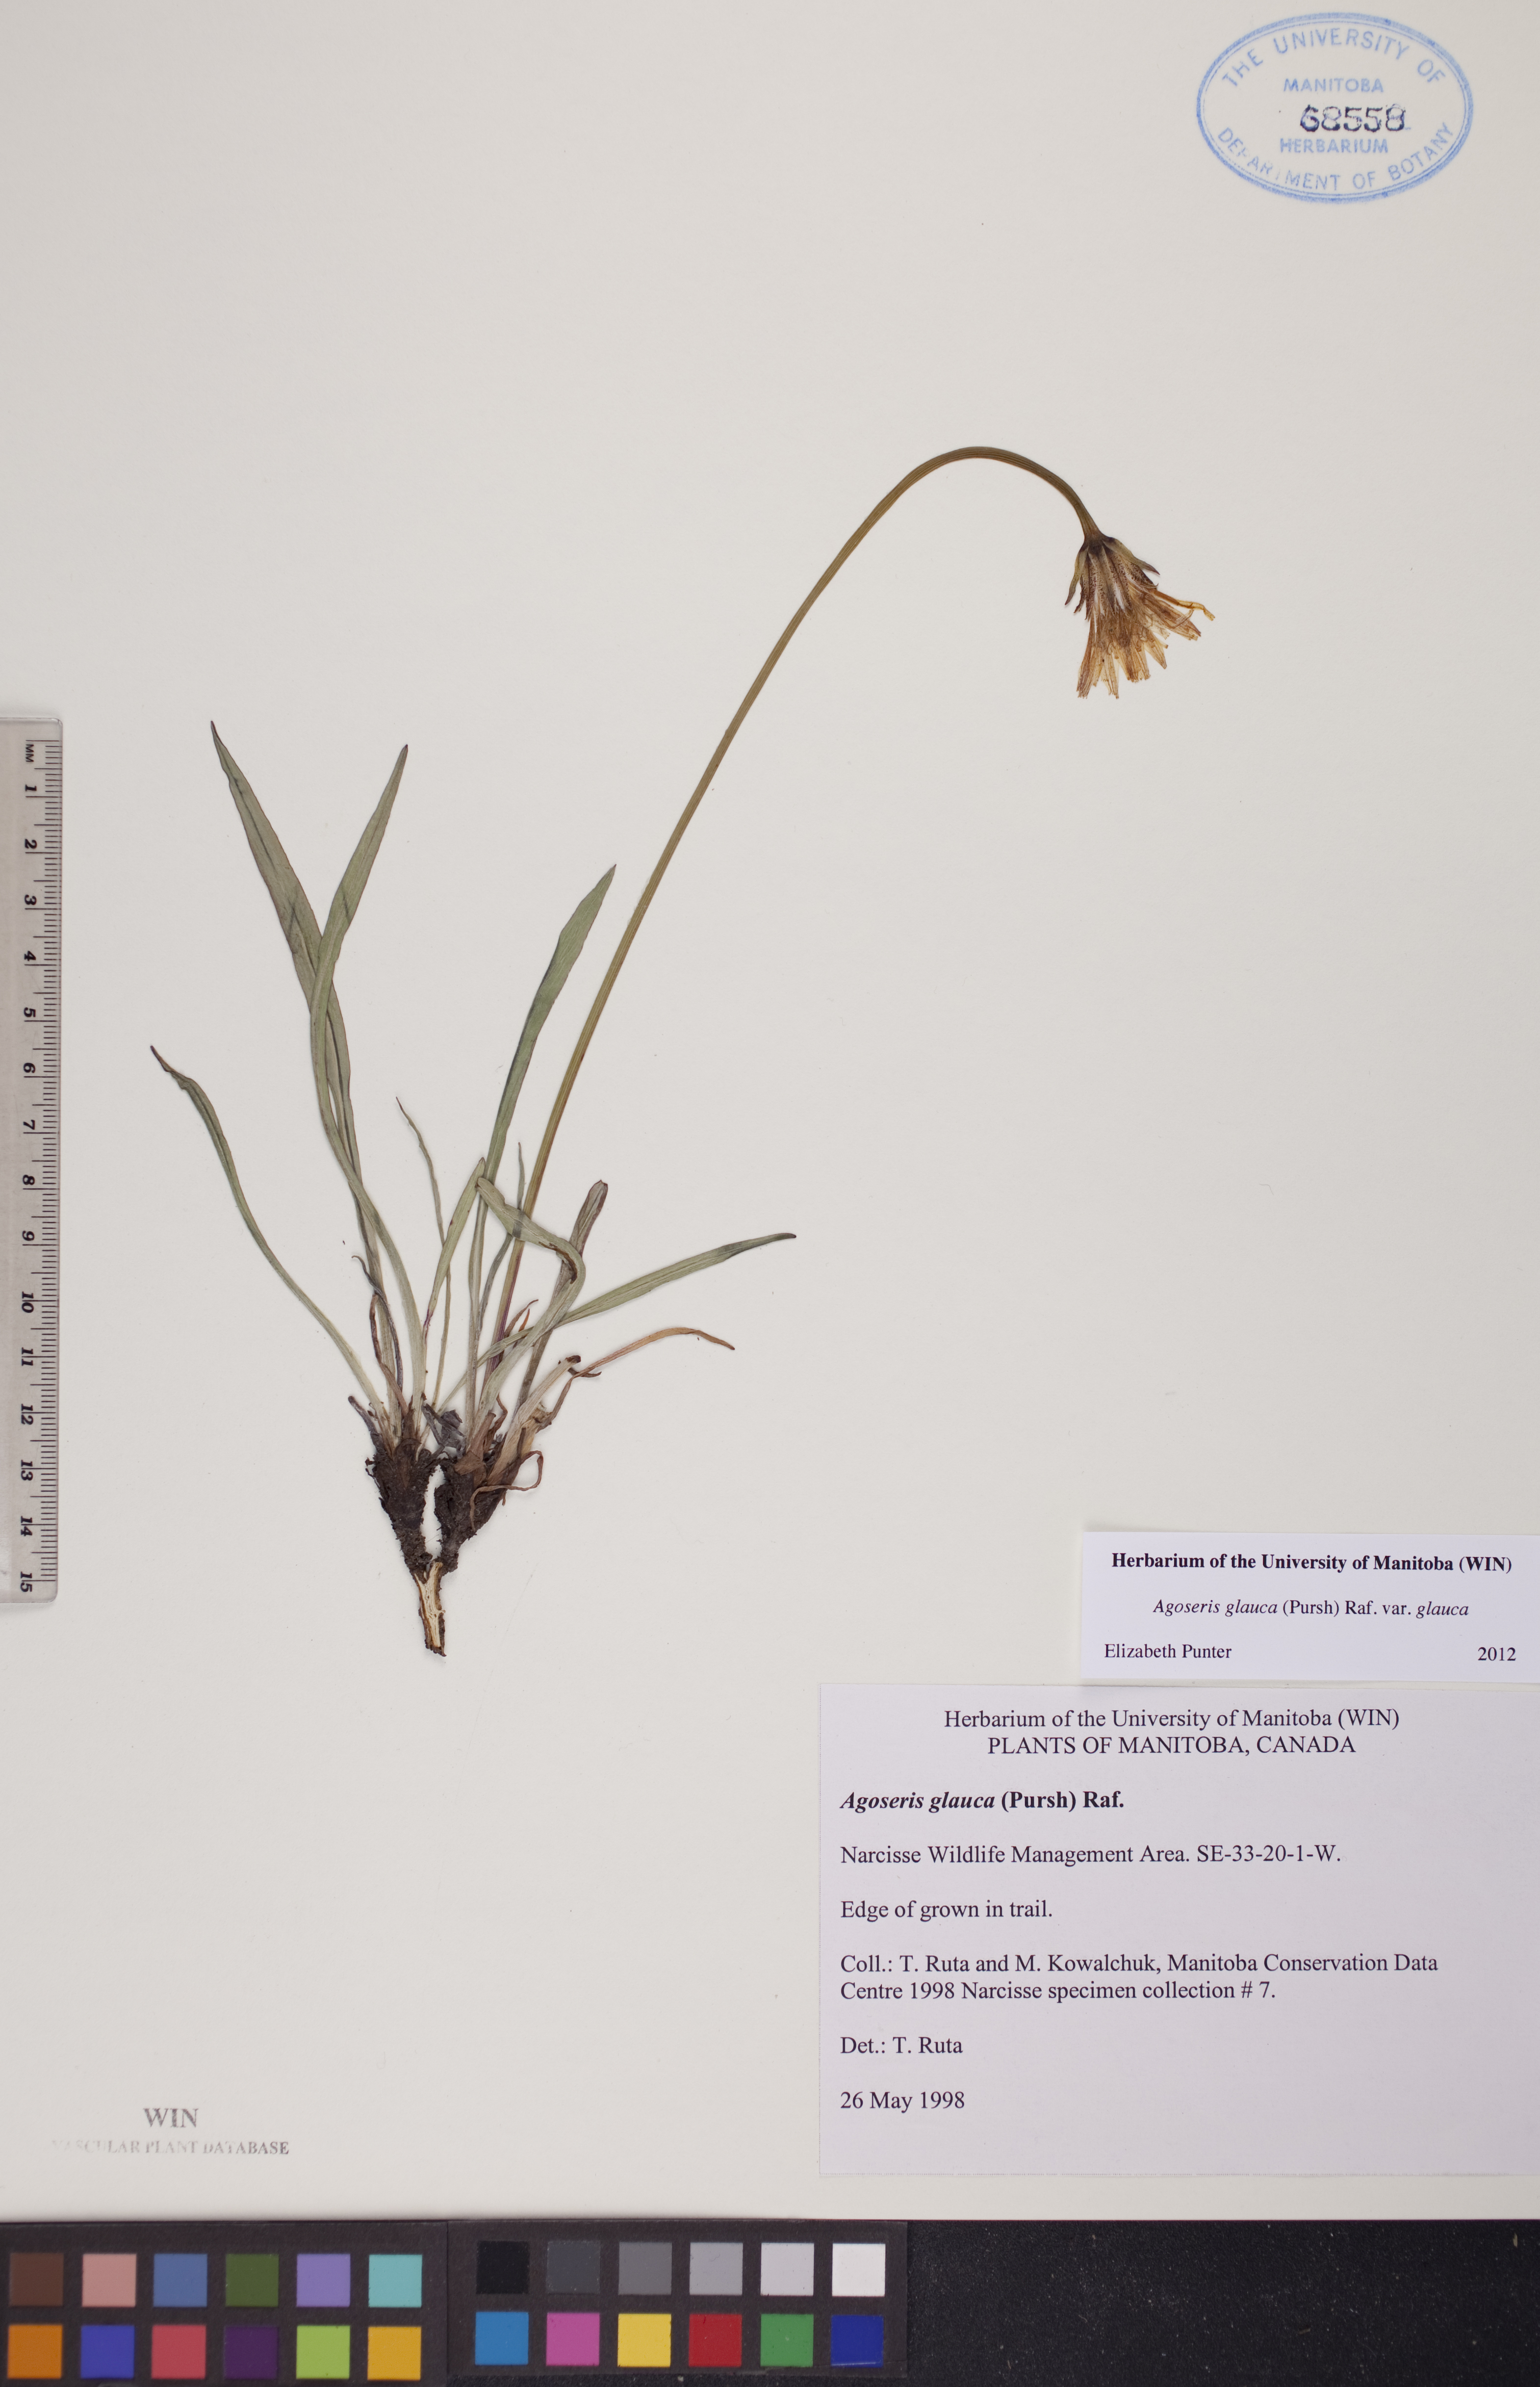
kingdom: Plantae
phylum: Tracheophyta
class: Magnoliopsida
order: Asterales
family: Asteraceae
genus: Agoseris
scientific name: Agoseris glauca
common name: Prairie agoseris
